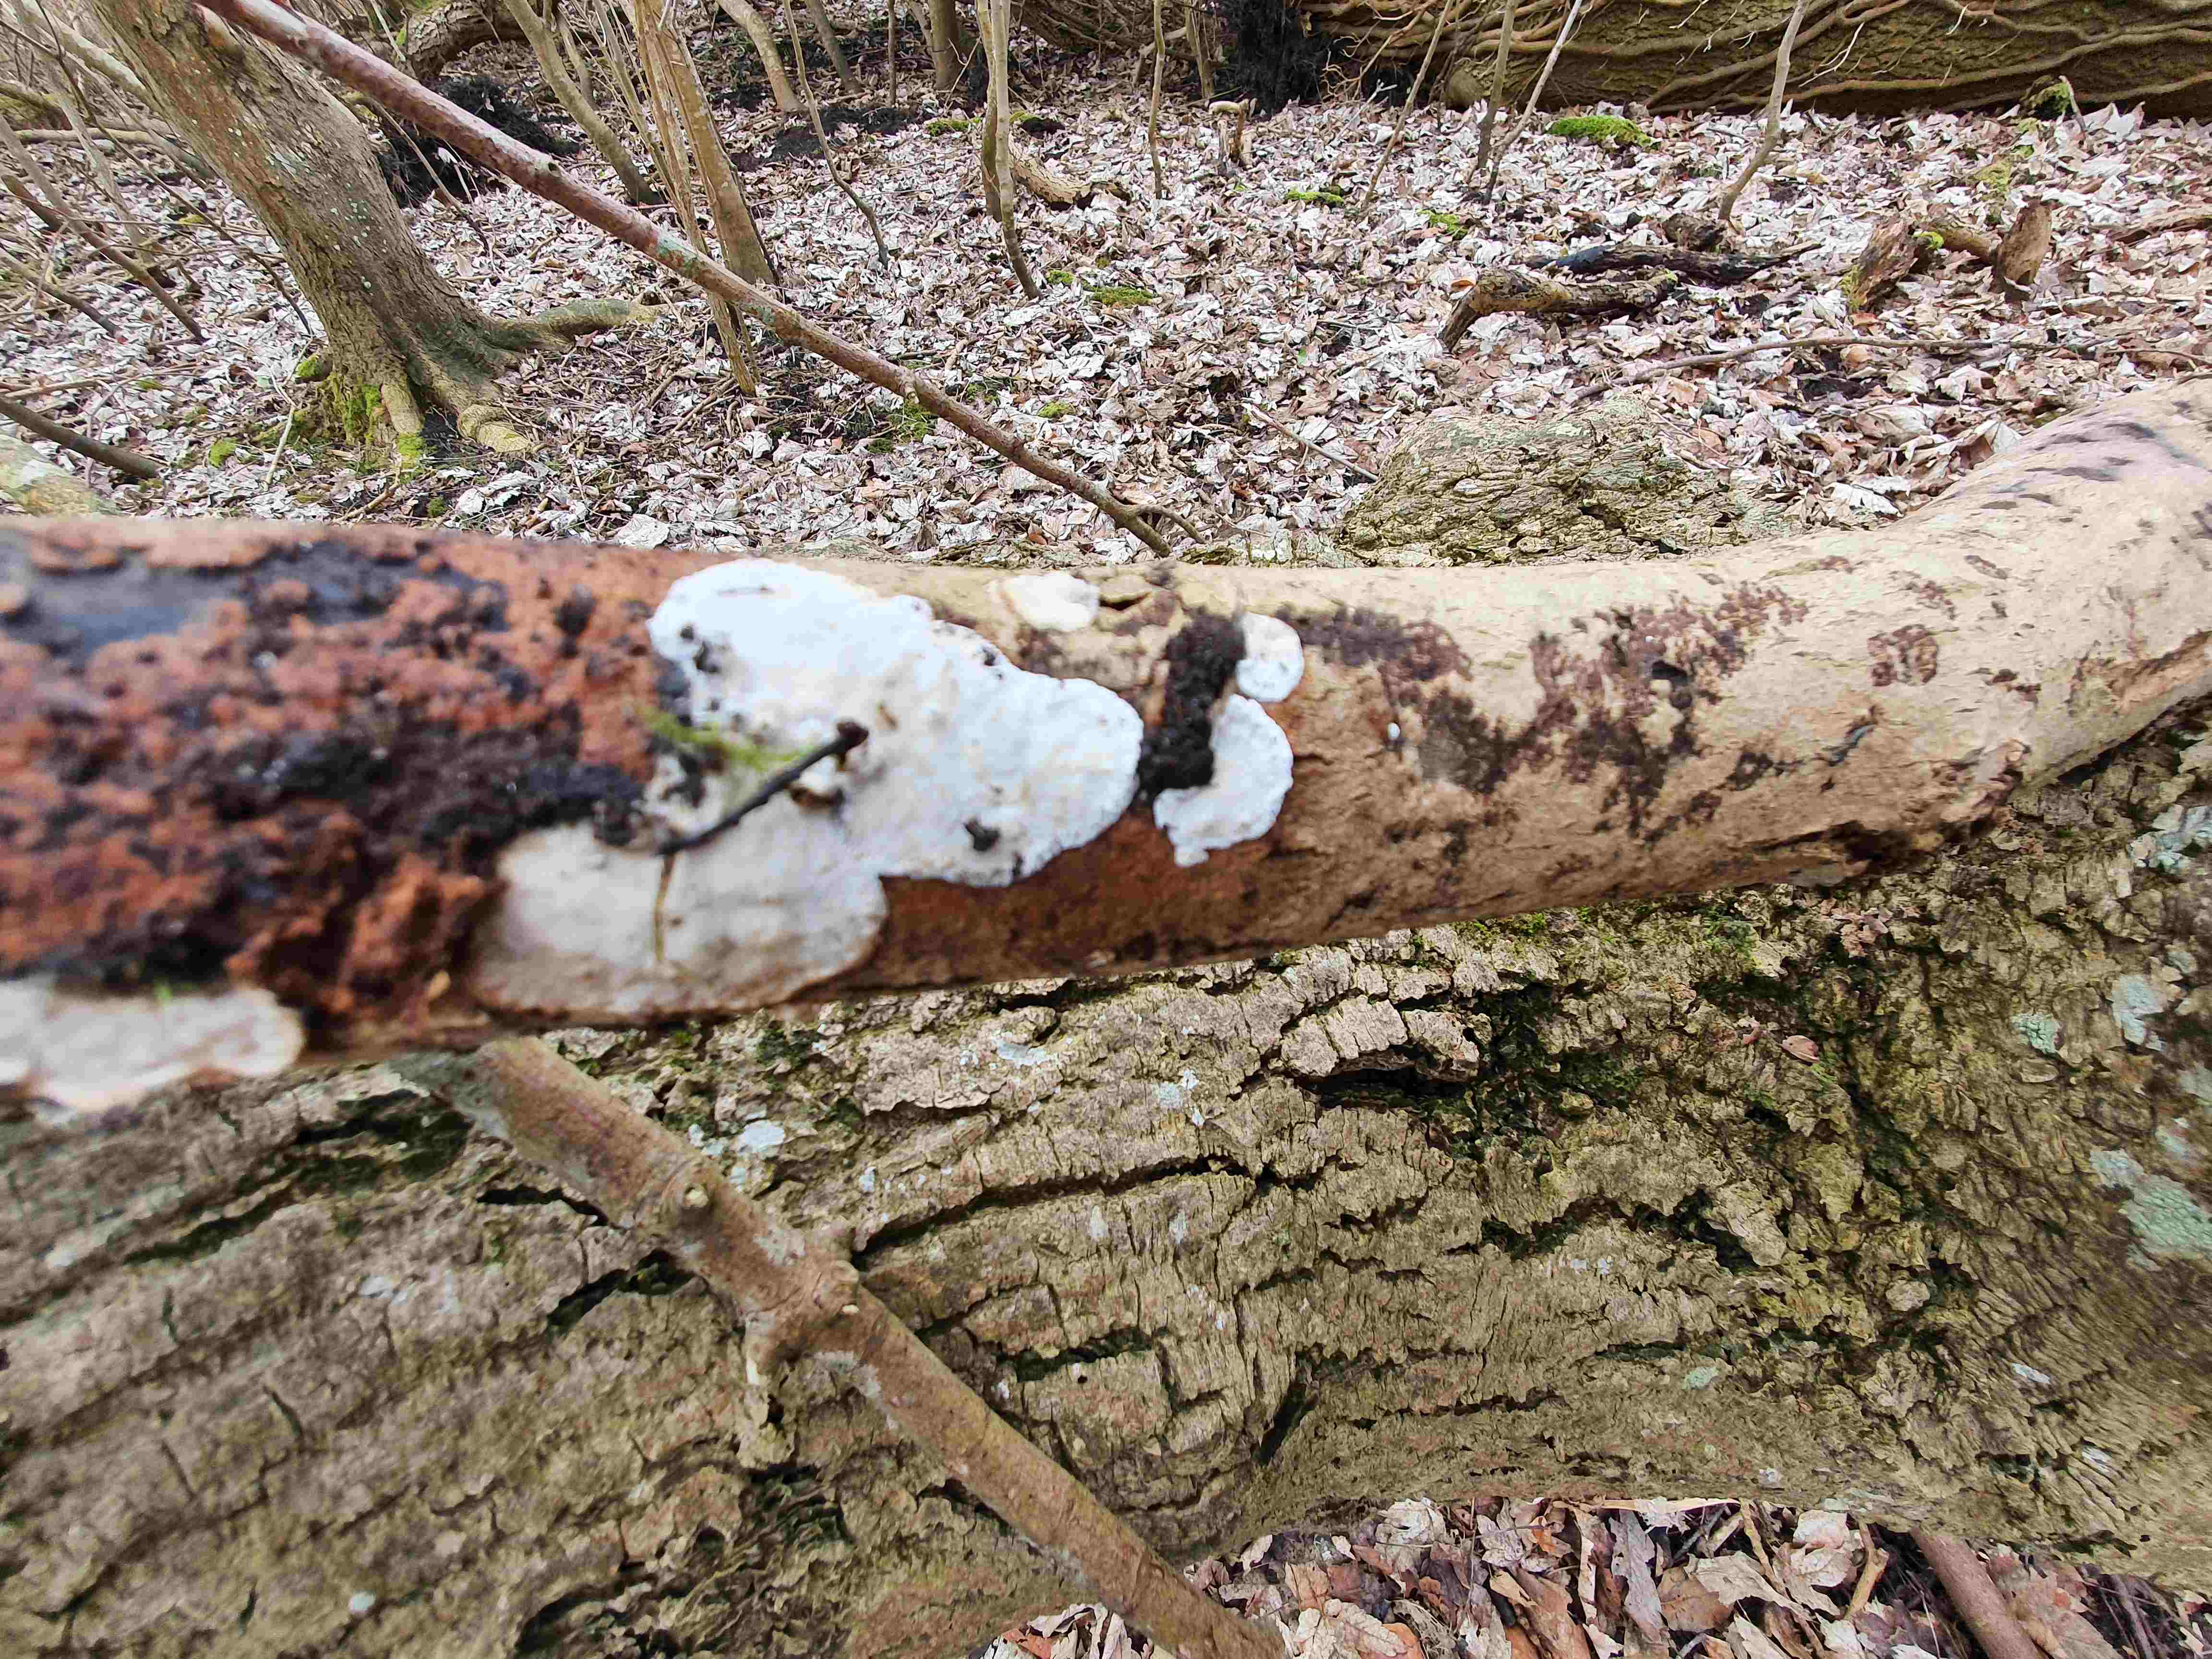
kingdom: Fungi
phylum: Basidiomycota
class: Agaricomycetes
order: Polyporales
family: Incrustoporiaceae
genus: Skeletocutis
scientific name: Skeletocutis nemoralis
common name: stor krystalporesvamp
